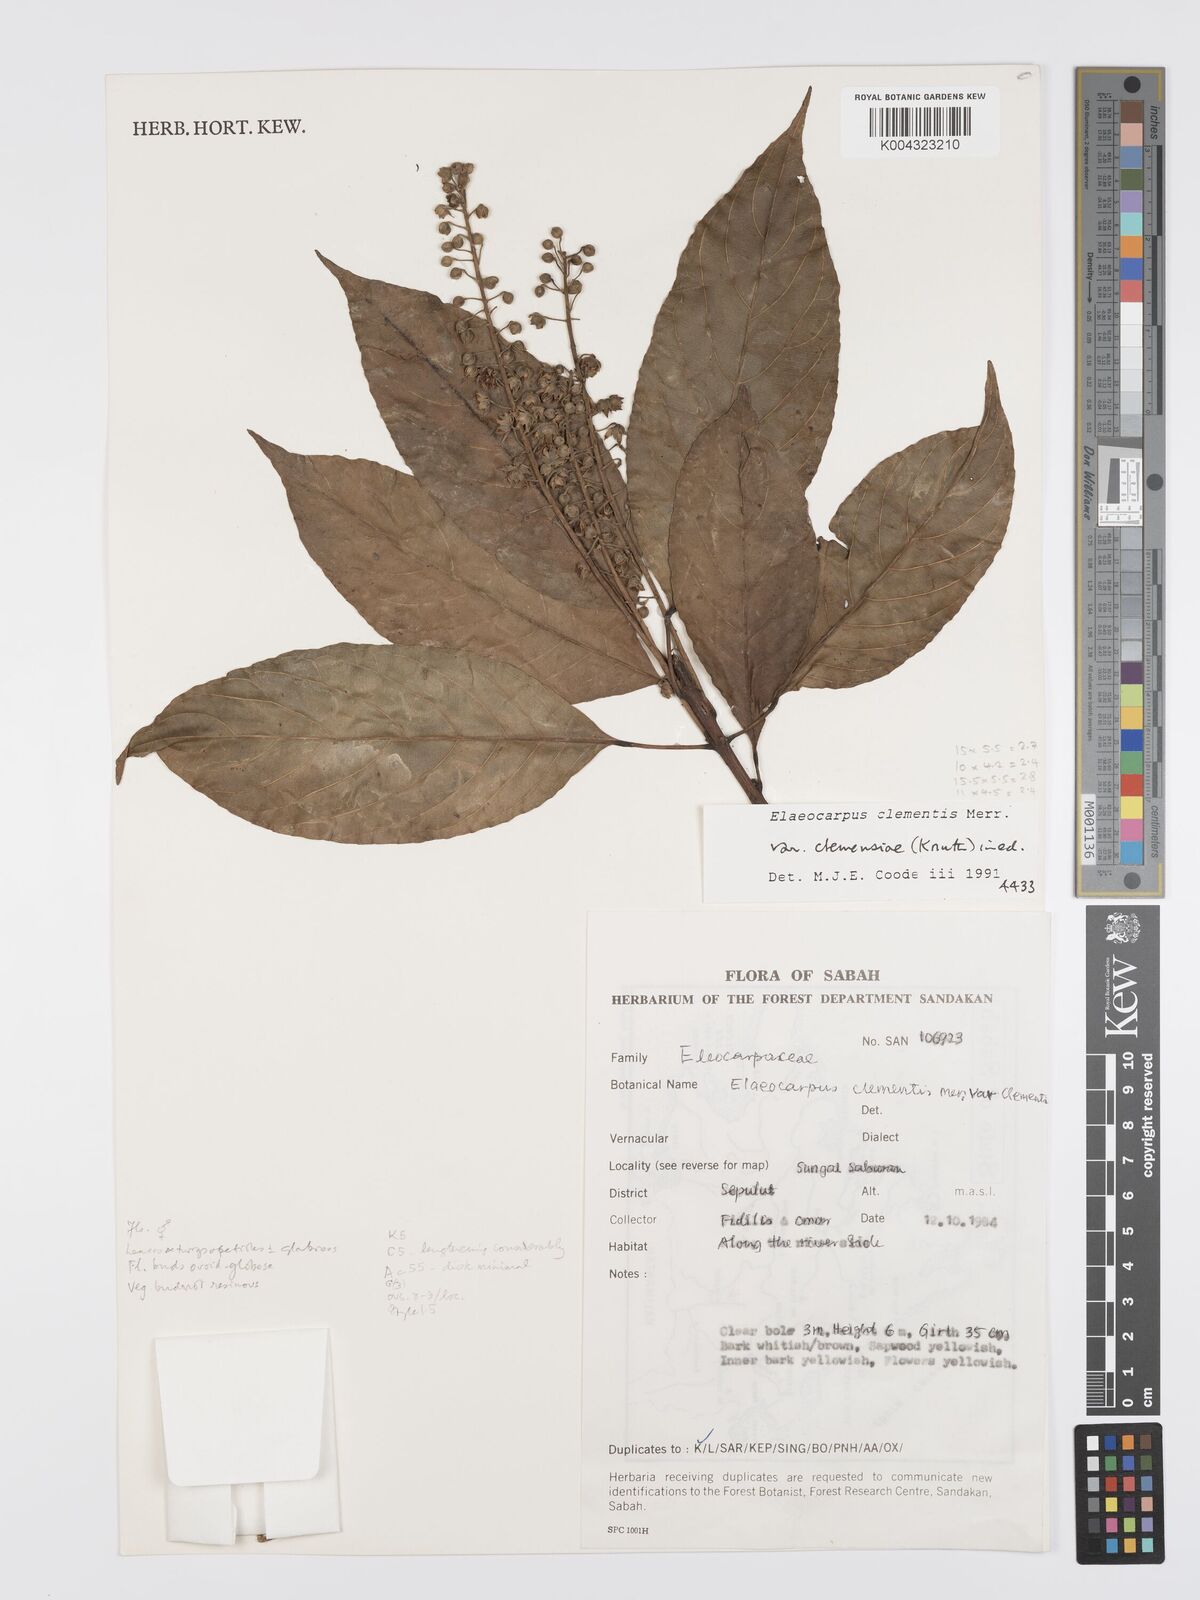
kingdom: Plantae
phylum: Tracheophyta
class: Magnoliopsida
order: Oxalidales
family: Elaeocarpaceae
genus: Elaeocarpus
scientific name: Elaeocarpus clementis
